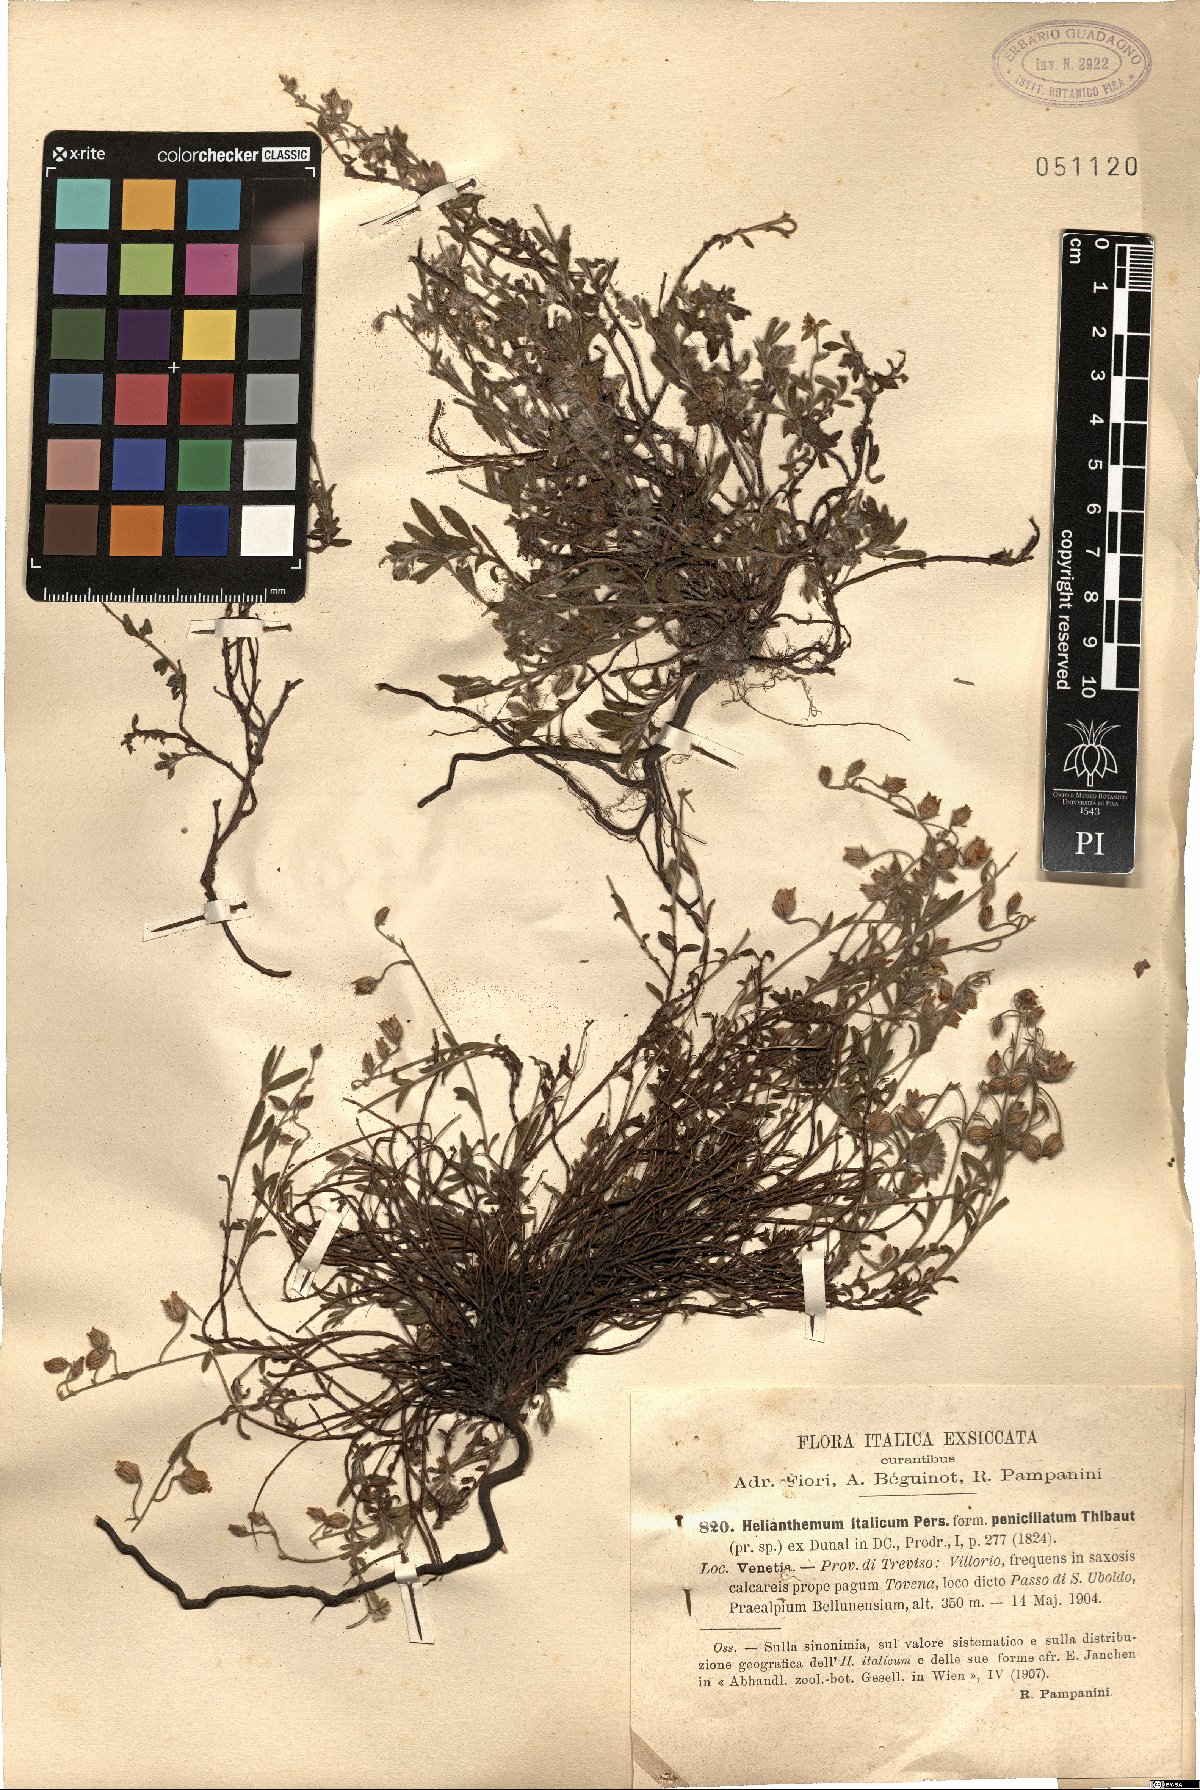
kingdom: Plantae
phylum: Tracheophyta
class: Magnoliopsida
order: Malvales
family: Cistaceae
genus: Helianthemum
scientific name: Helianthemum italicum
